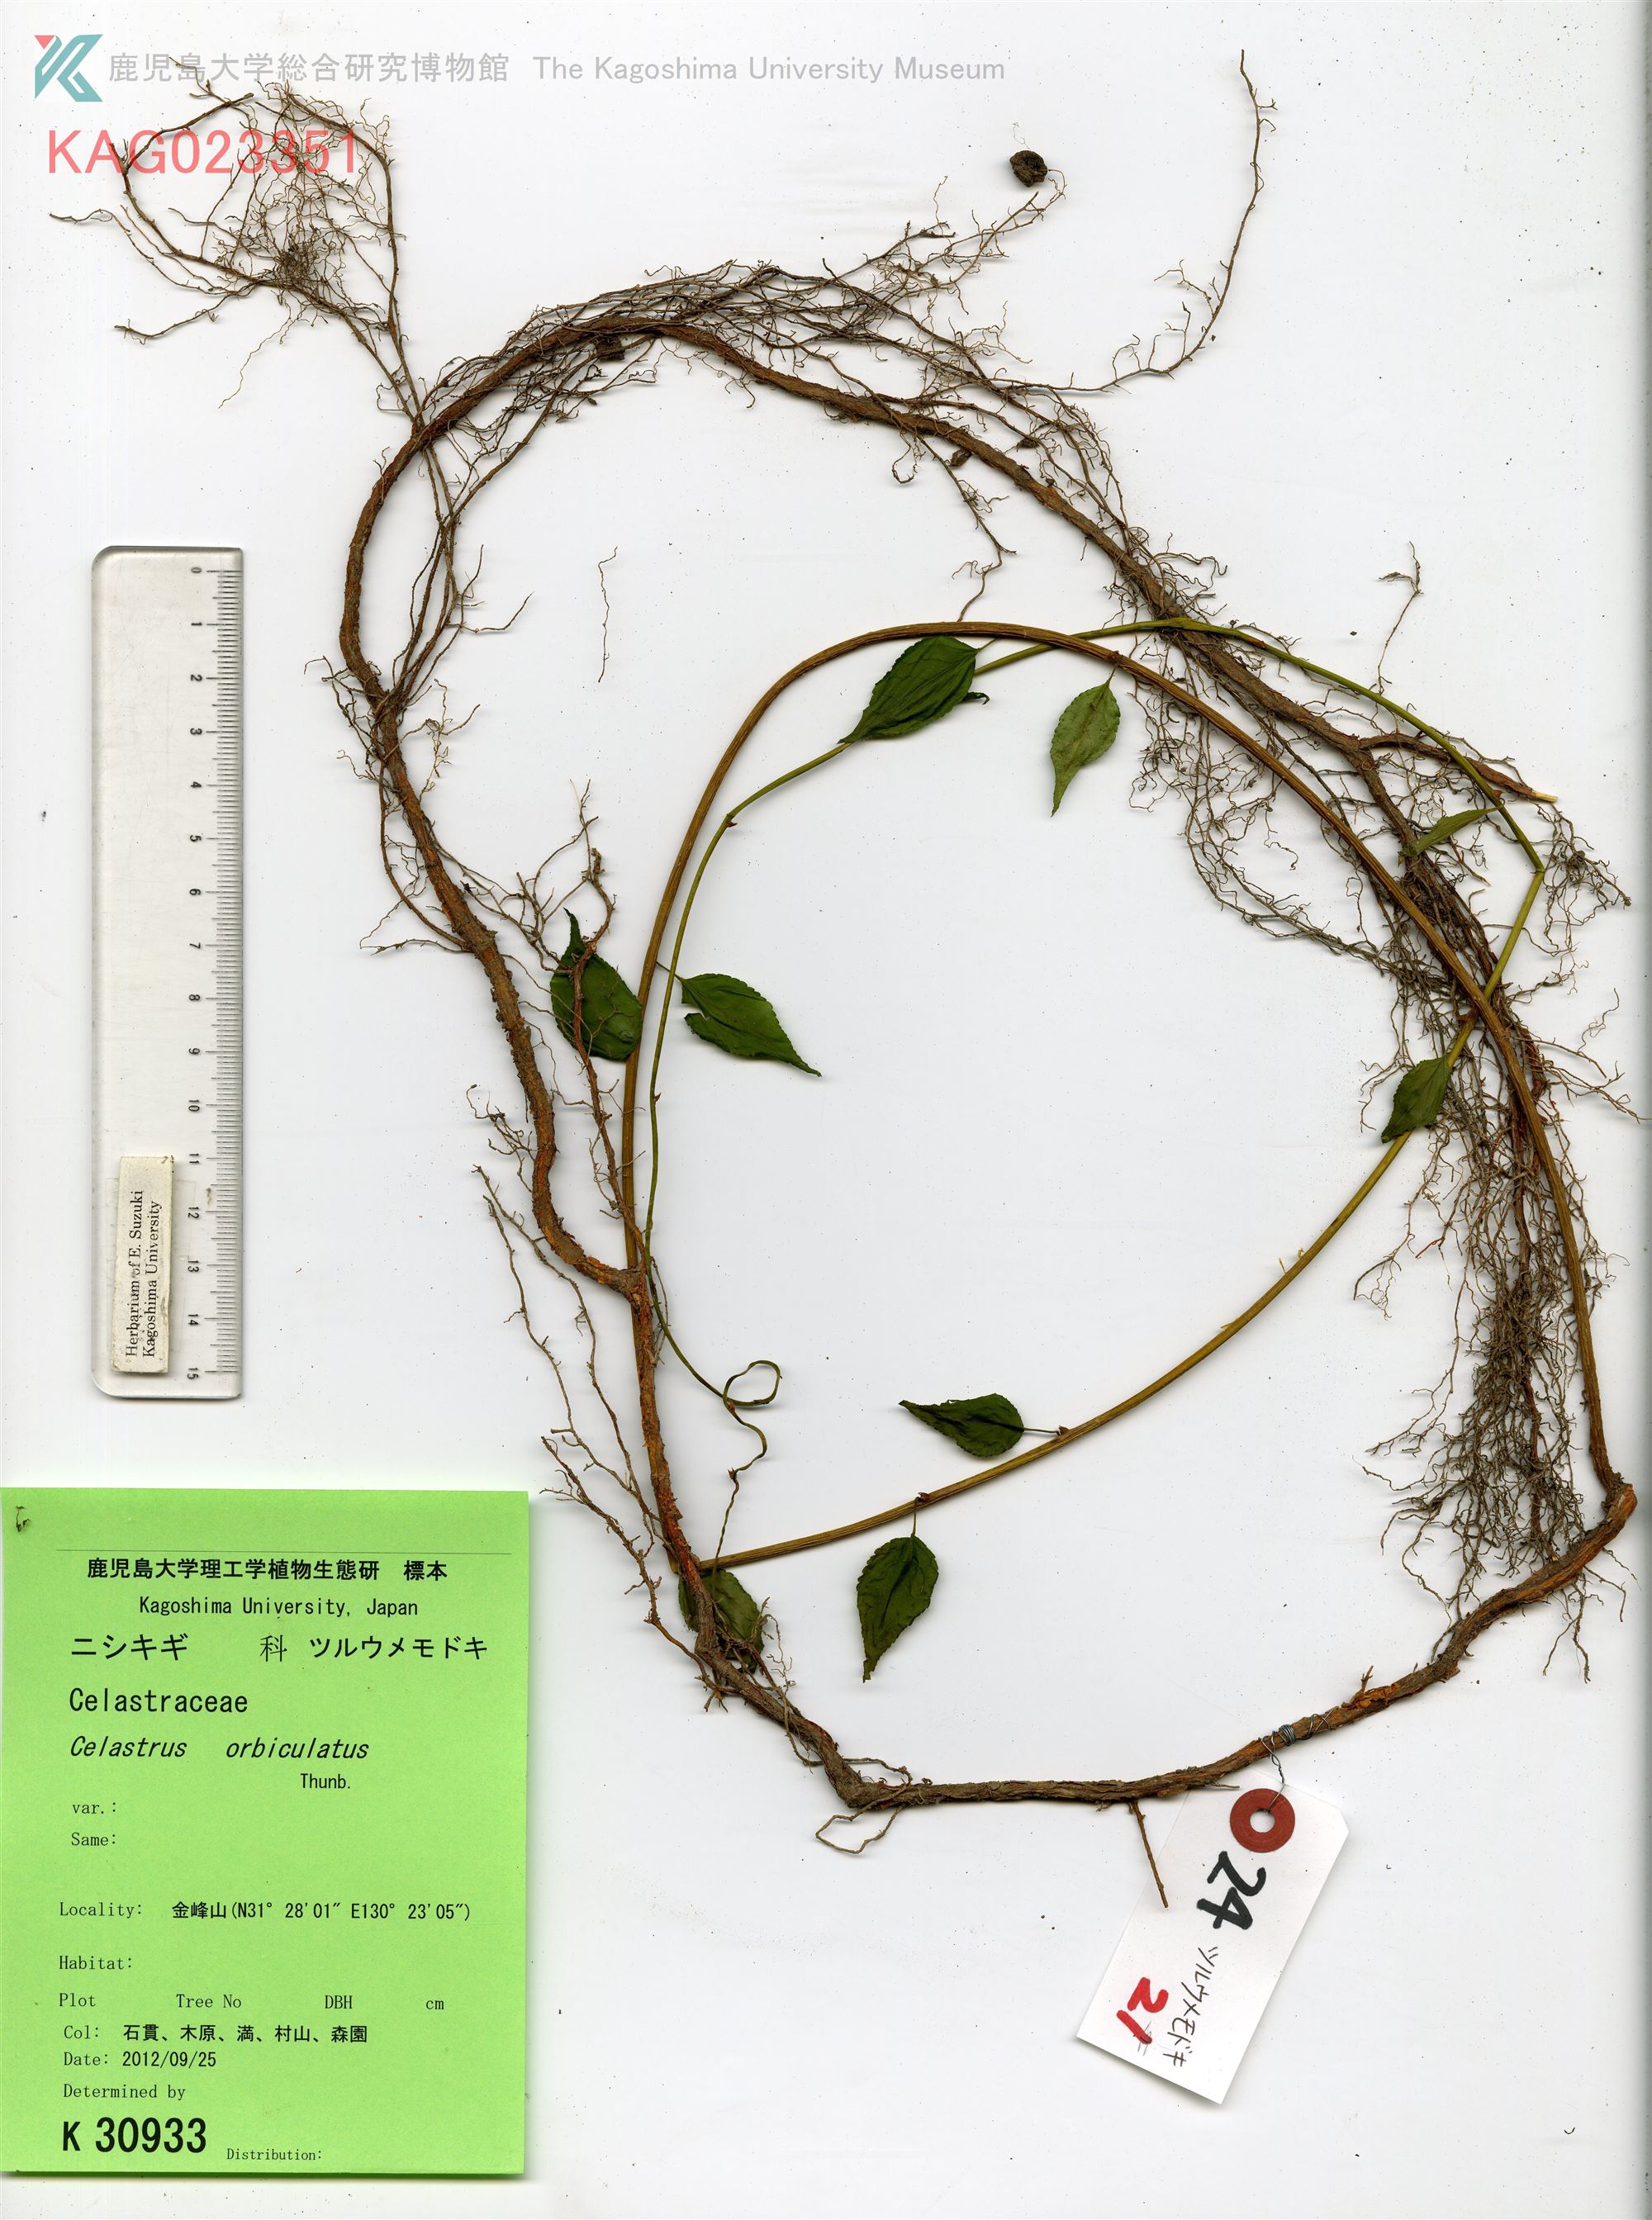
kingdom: Plantae
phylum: Tracheophyta
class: Magnoliopsida
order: Celastrales
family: Celastraceae
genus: Celastrus
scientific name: Celastrus orbiculatus
